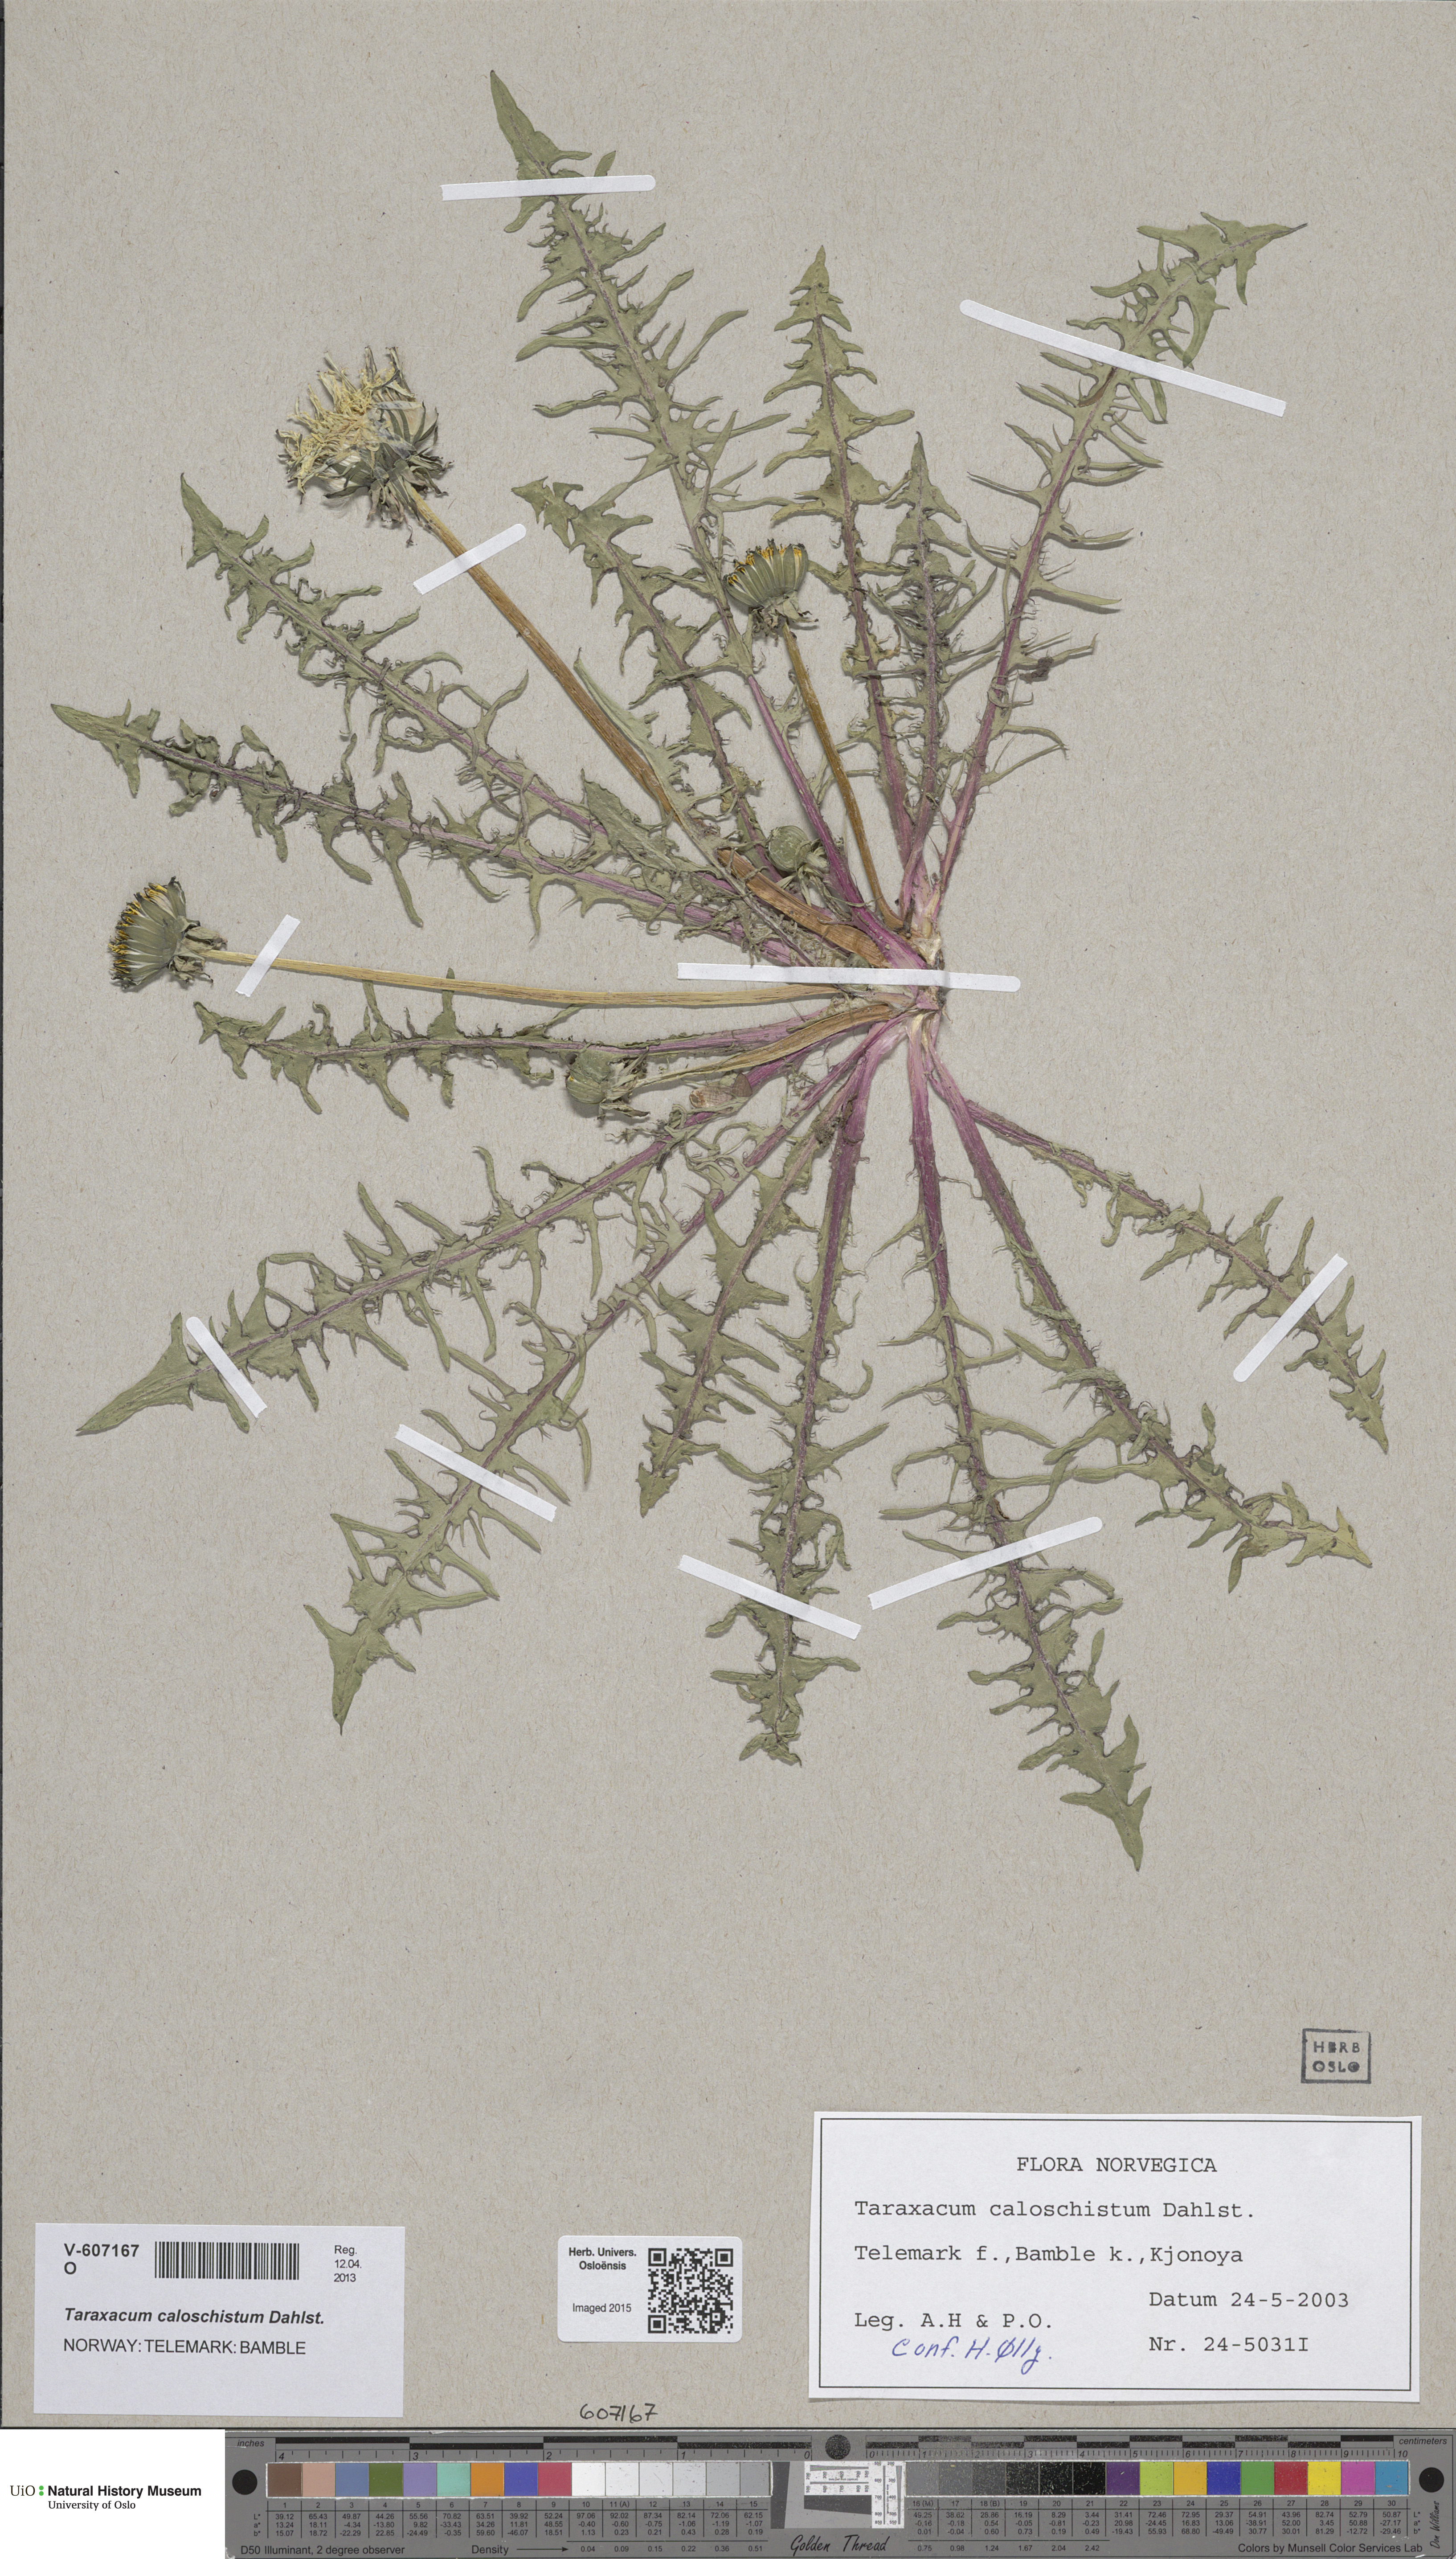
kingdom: Plantae
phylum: Tracheophyta
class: Magnoliopsida
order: Asterales
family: Asteraceae
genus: Taraxacum
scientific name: Taraxacum caloschistum
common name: Brilliant-stalked dandelion
